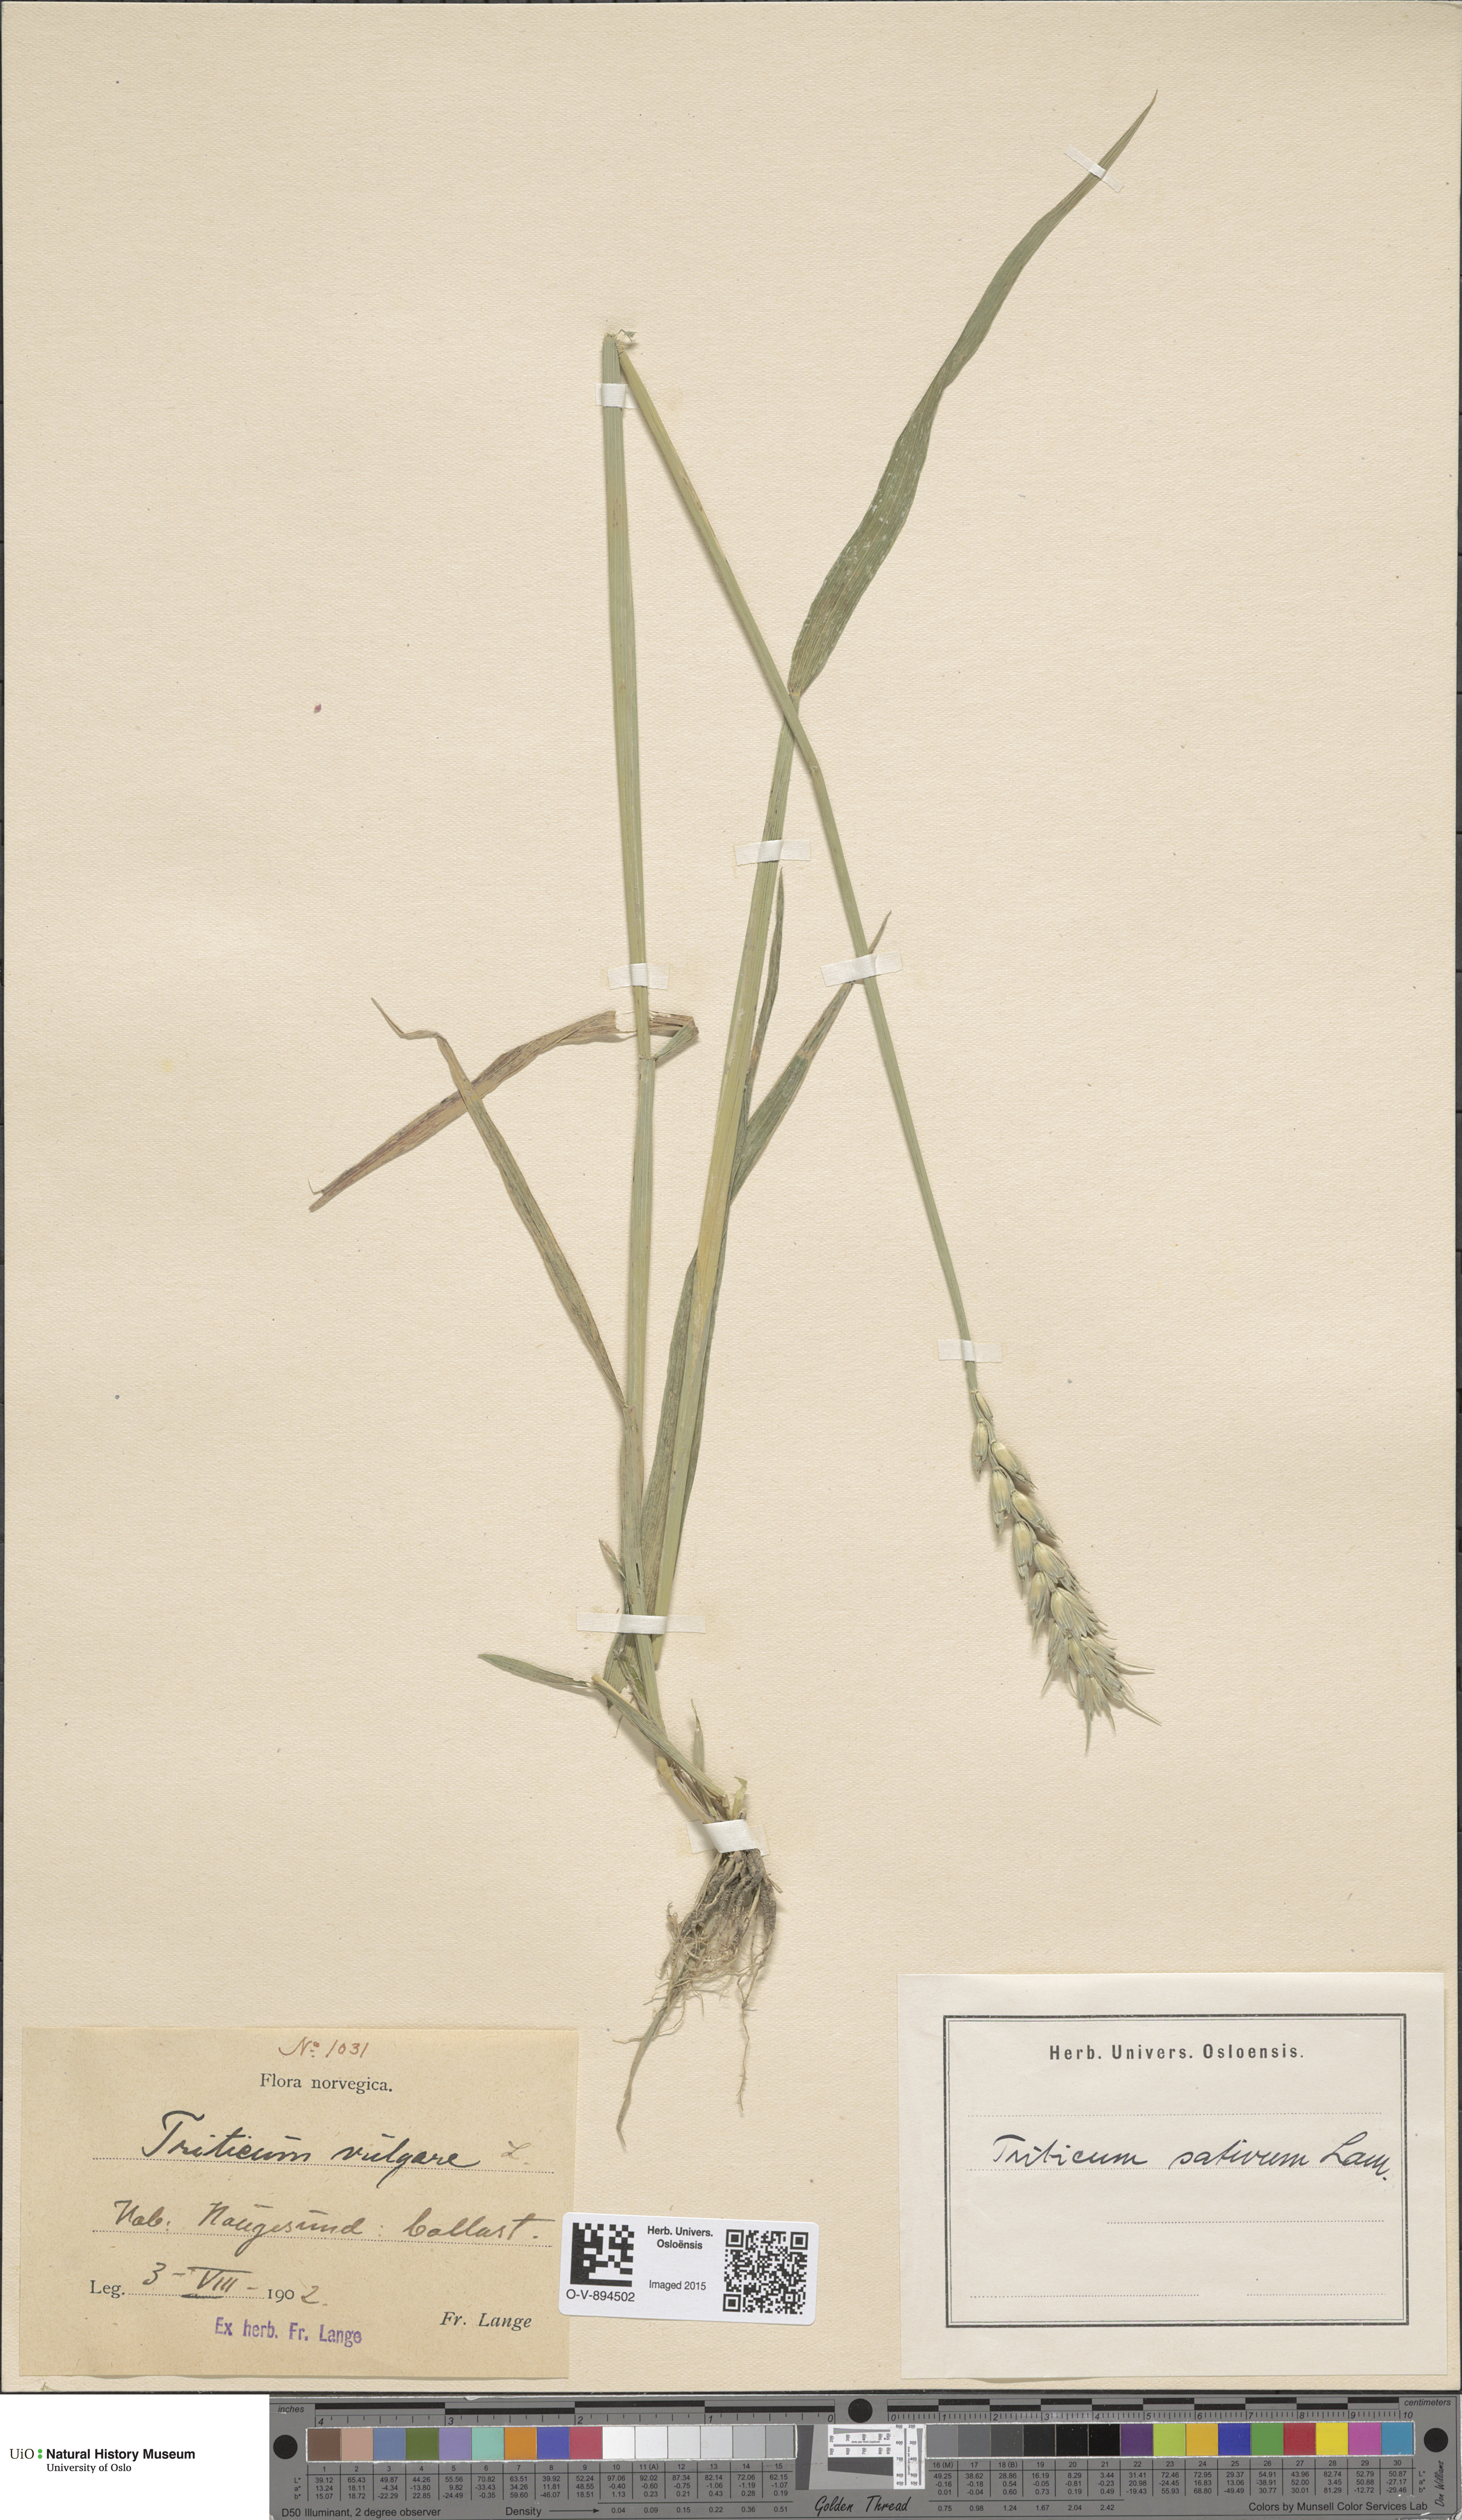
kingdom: Plantae
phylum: Tracheophyta
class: Liliopsida
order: Poales
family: Poaceae
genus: Triticum
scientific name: Triticum aestivum
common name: Common wheat
